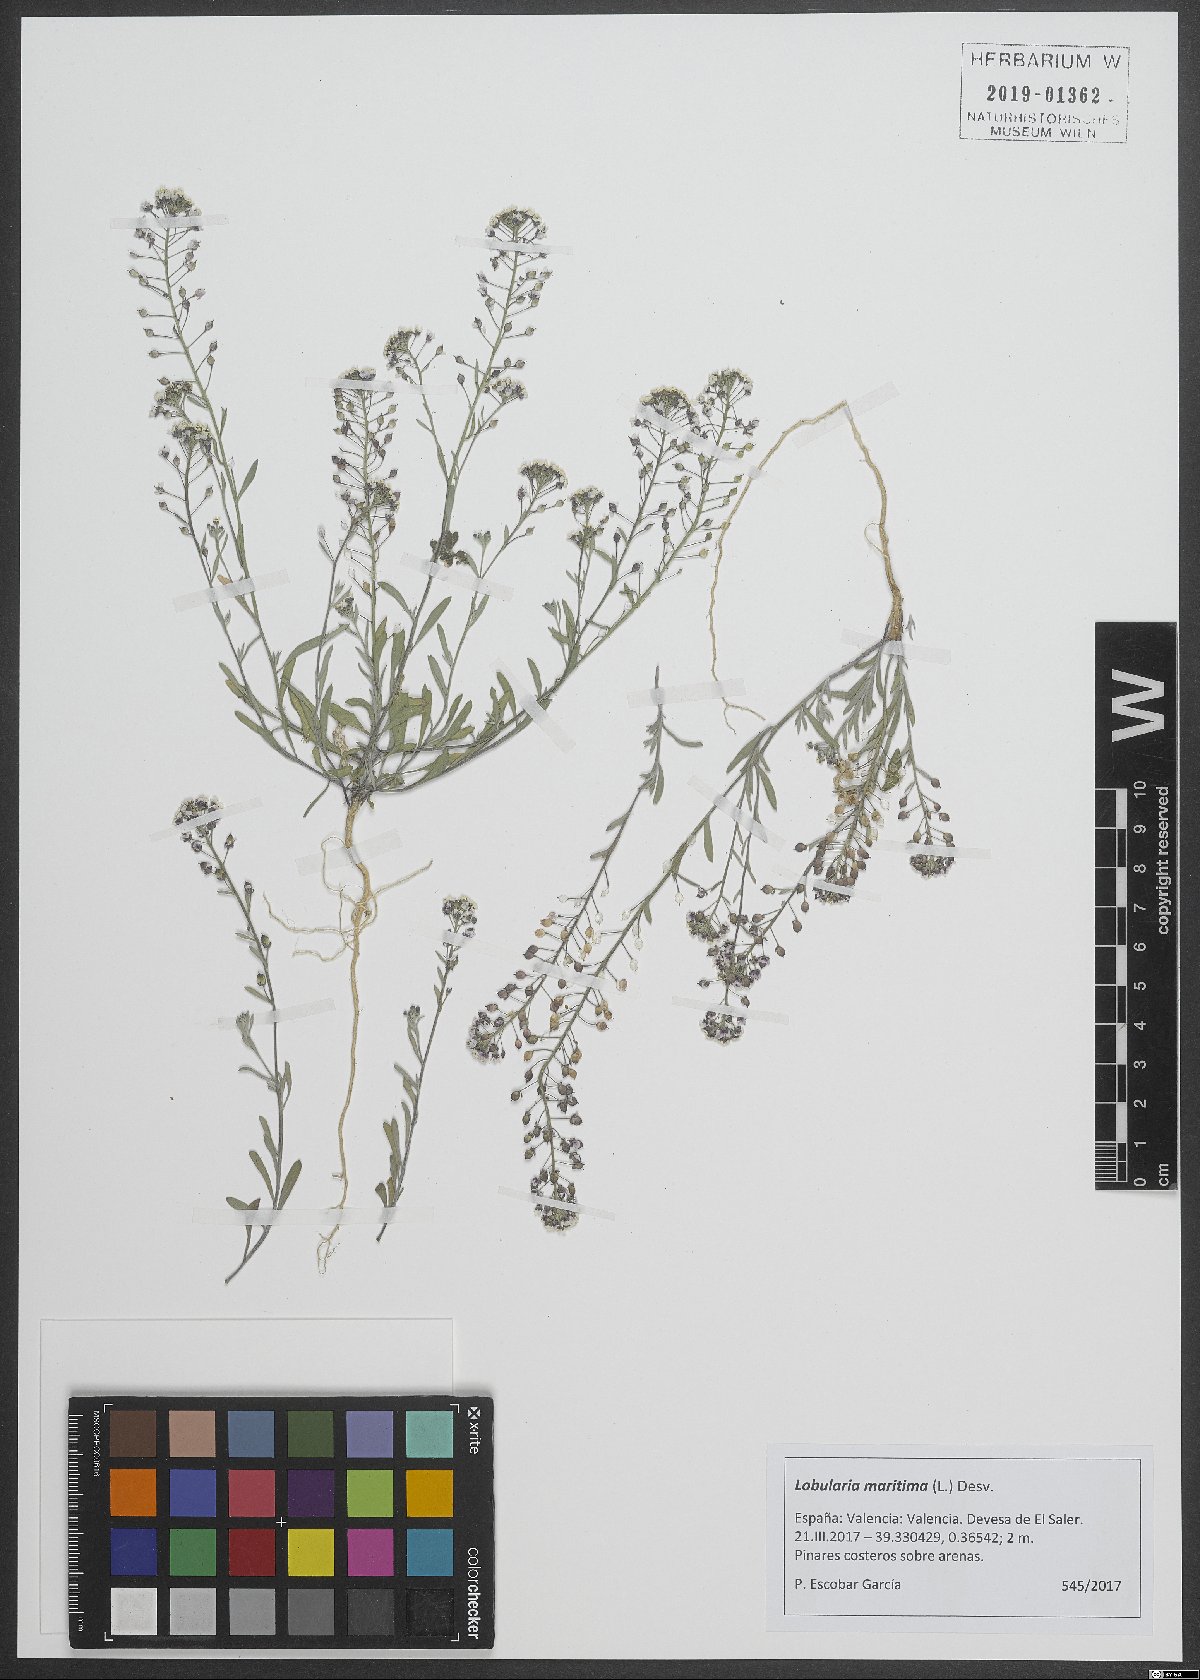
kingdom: Plantae
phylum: Tracheophyta
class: Magnoliopsida
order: Brassicales
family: Brassicaceae
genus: Lobularia
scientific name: Lobularia maritima
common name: Sweet alison
